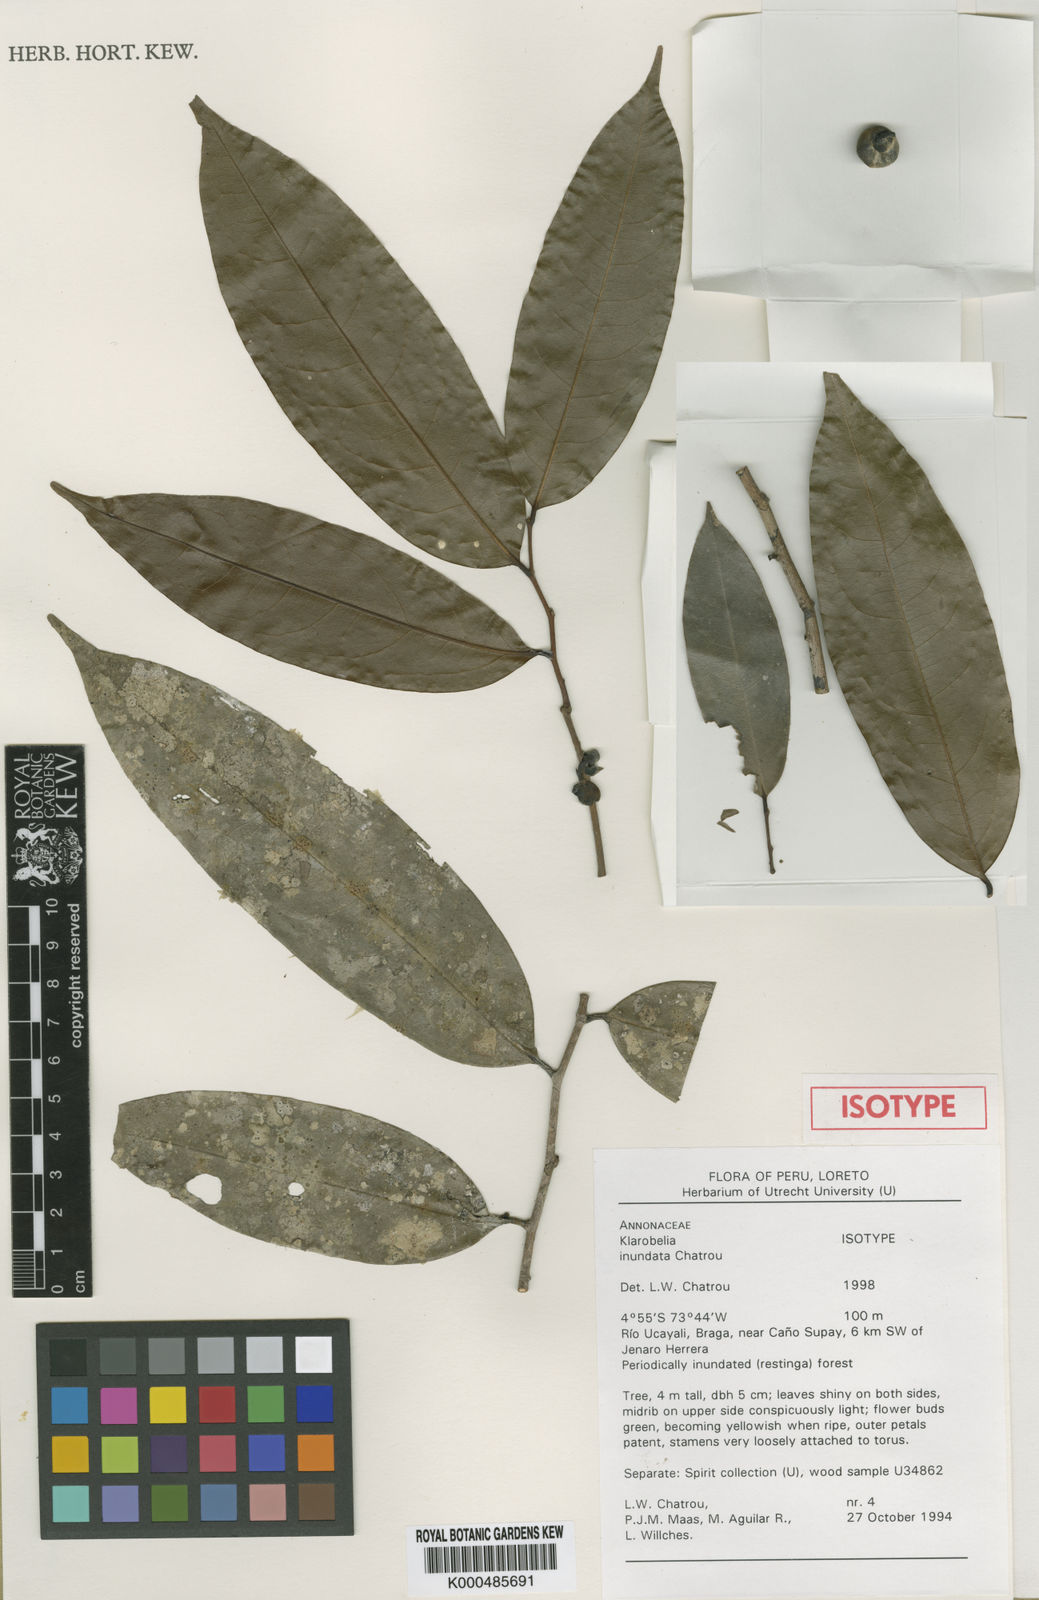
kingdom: Plantae
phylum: Tracheophyta
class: Magnoliopsida
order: Magnoliales
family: Annonaceae
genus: Klarobelia
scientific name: Klarobelia inundata
